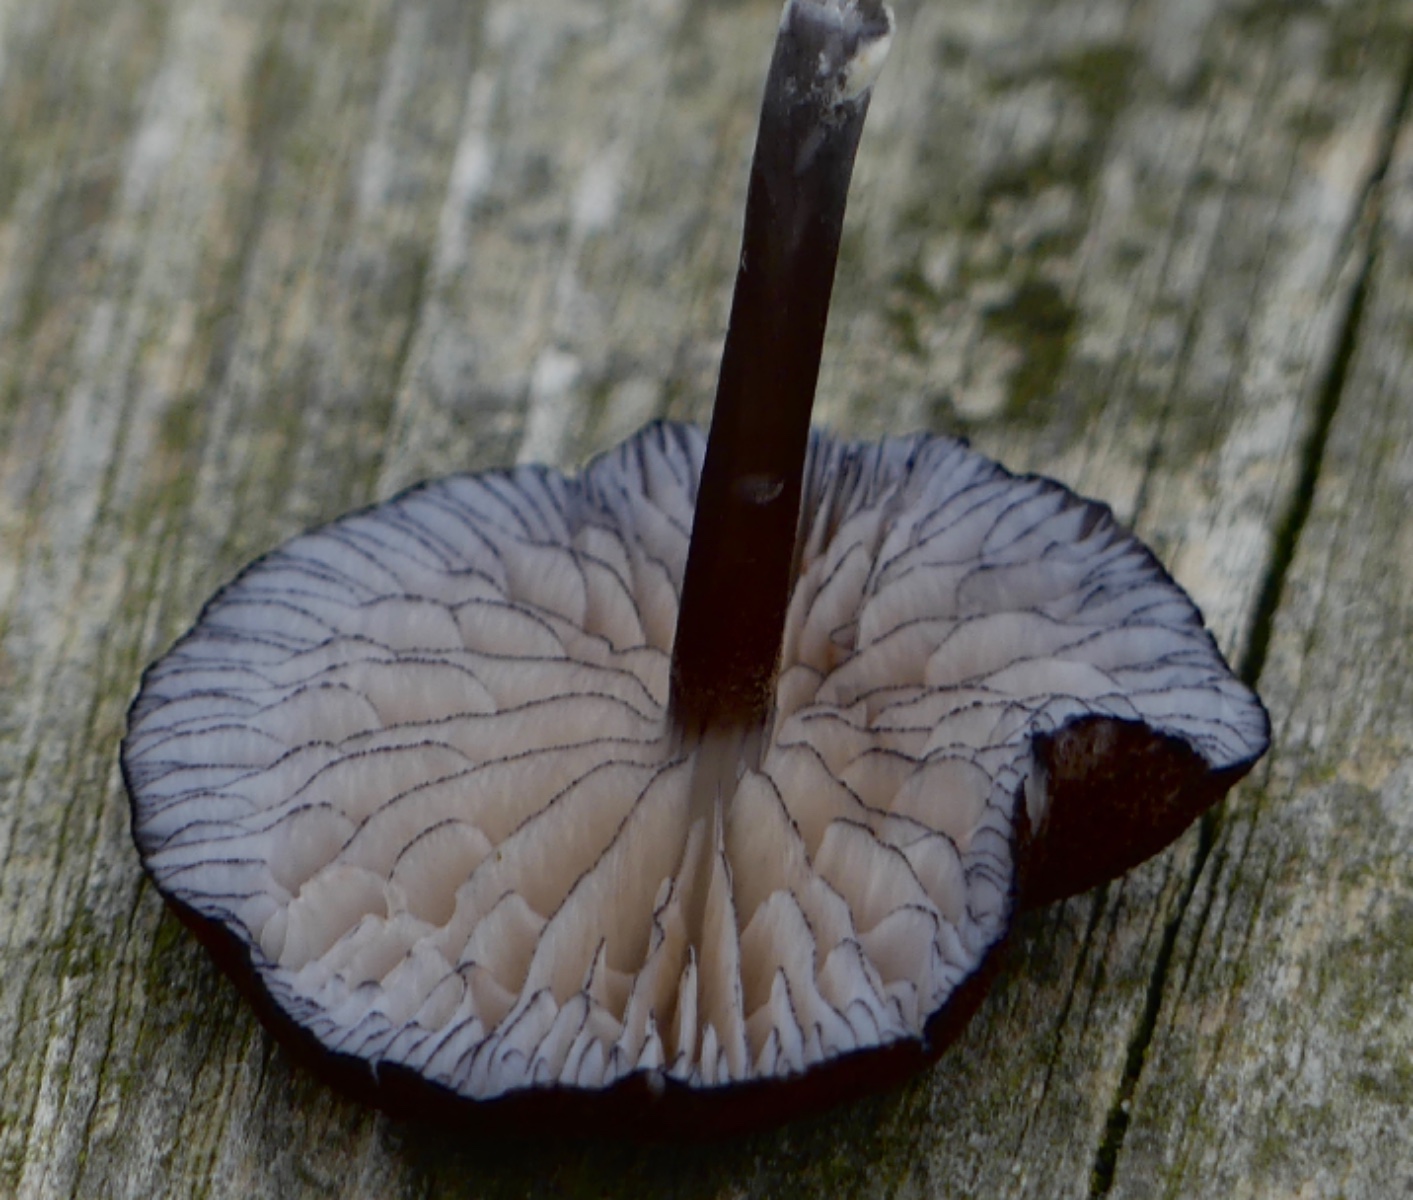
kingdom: Fungi
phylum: Basidiomycota
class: Agaricomycetes
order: Agaricales
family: Entolomataceae
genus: Entoloma
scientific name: Entoloma
